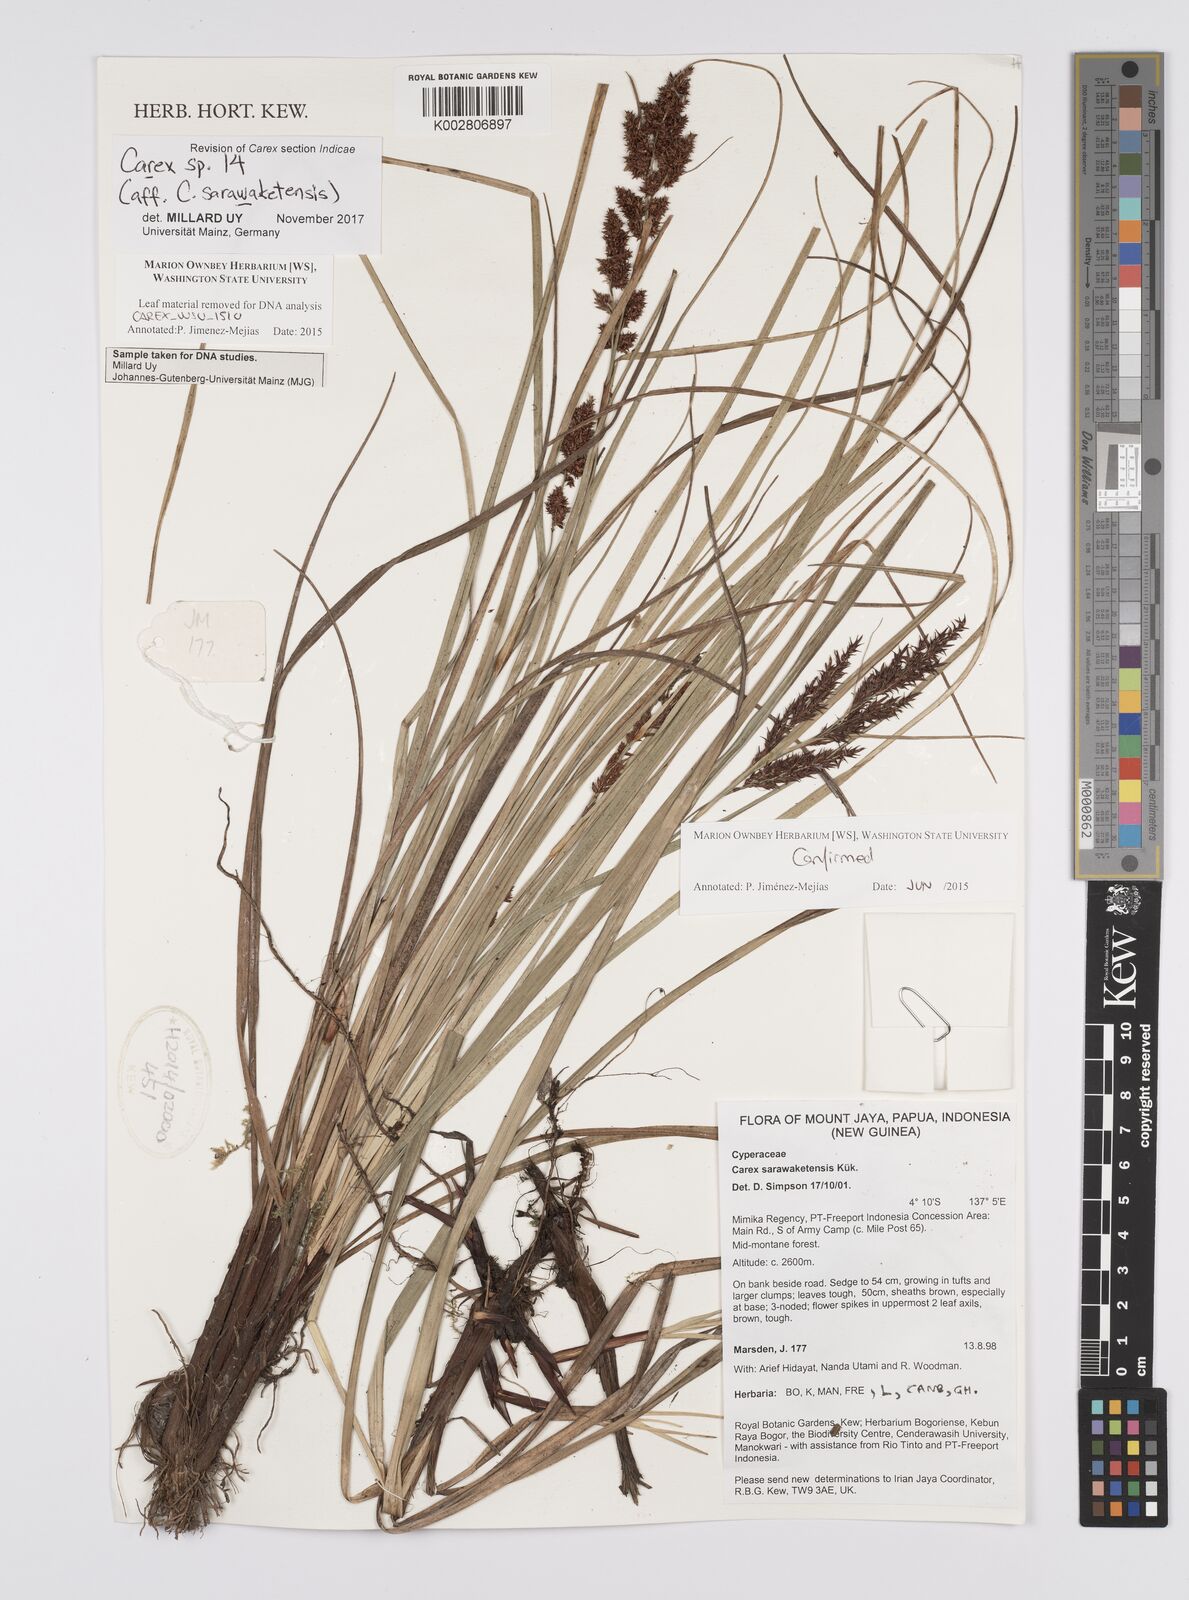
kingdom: Plantae
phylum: Tracheophyta
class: Liliopsida
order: Poales
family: Cyperaceae
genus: Carex
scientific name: Carex sarawaketensis
